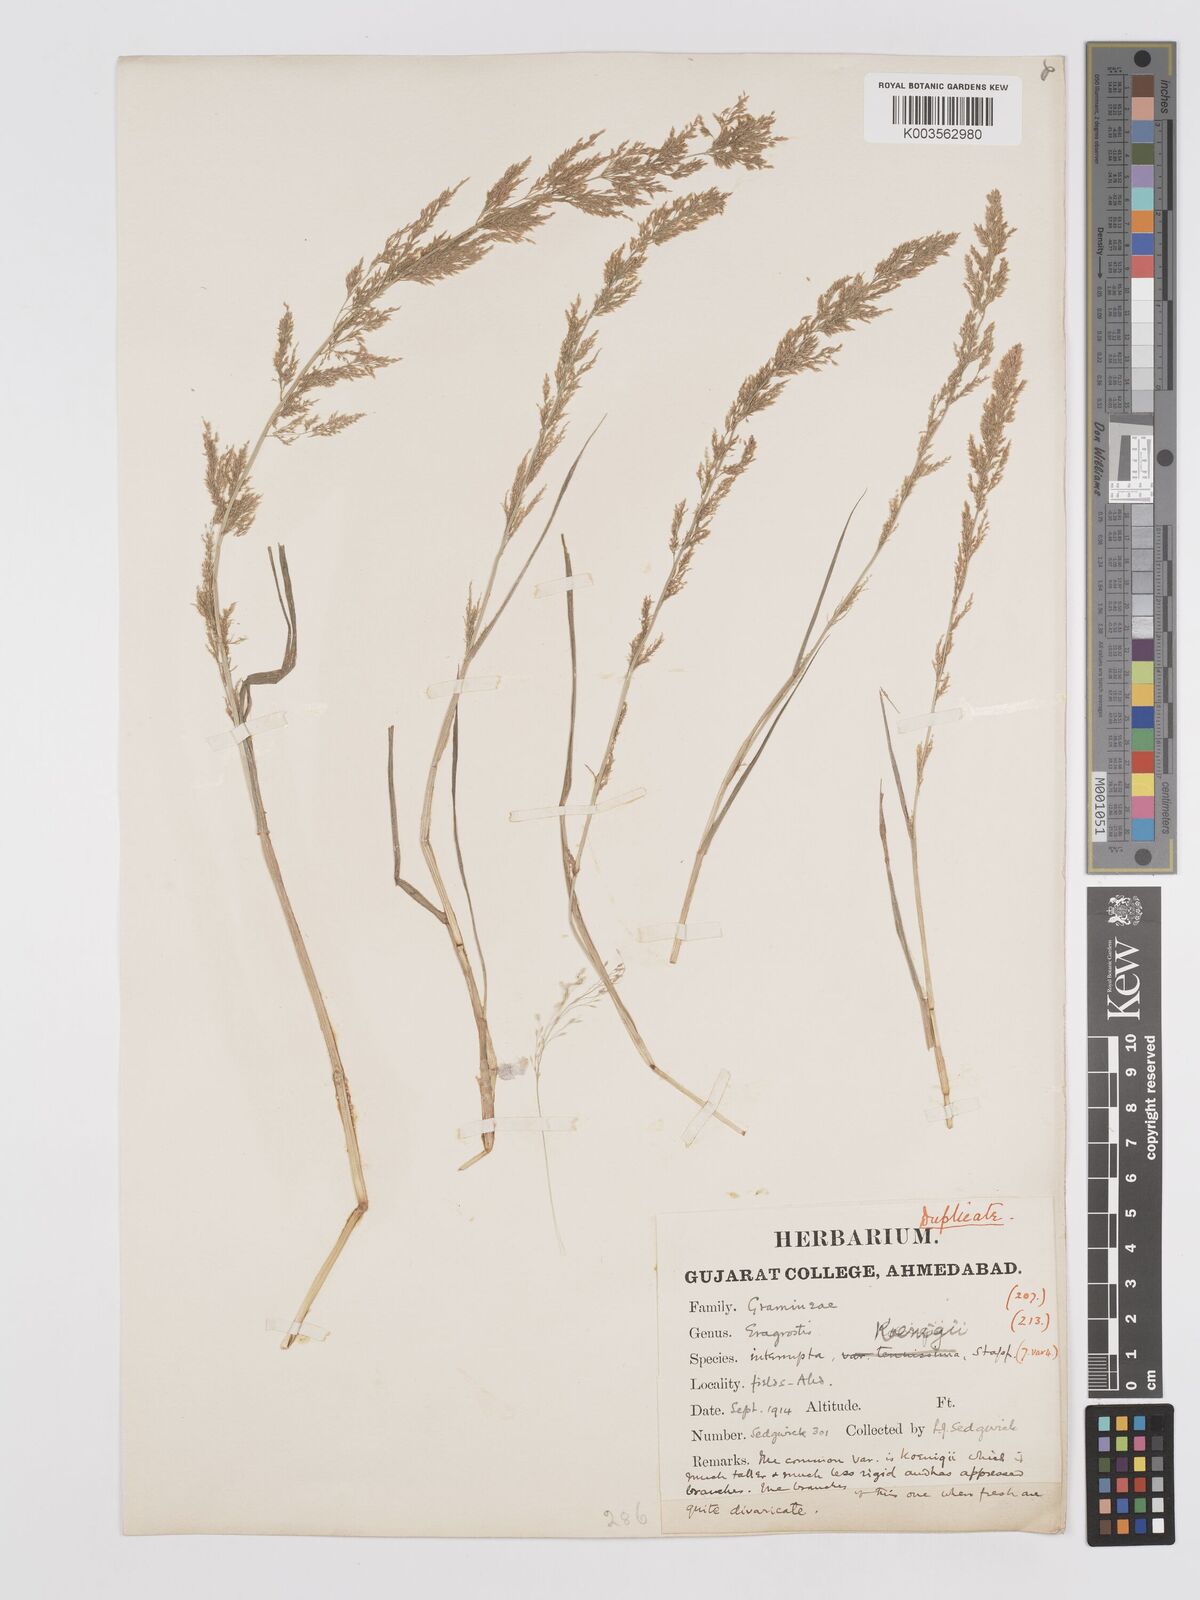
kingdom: Plantae
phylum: Tracheophyta
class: Liliopsida
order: Poales
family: Poaceae
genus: Eragrostis
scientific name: Eragrostis japonica
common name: Pond lovegrass
